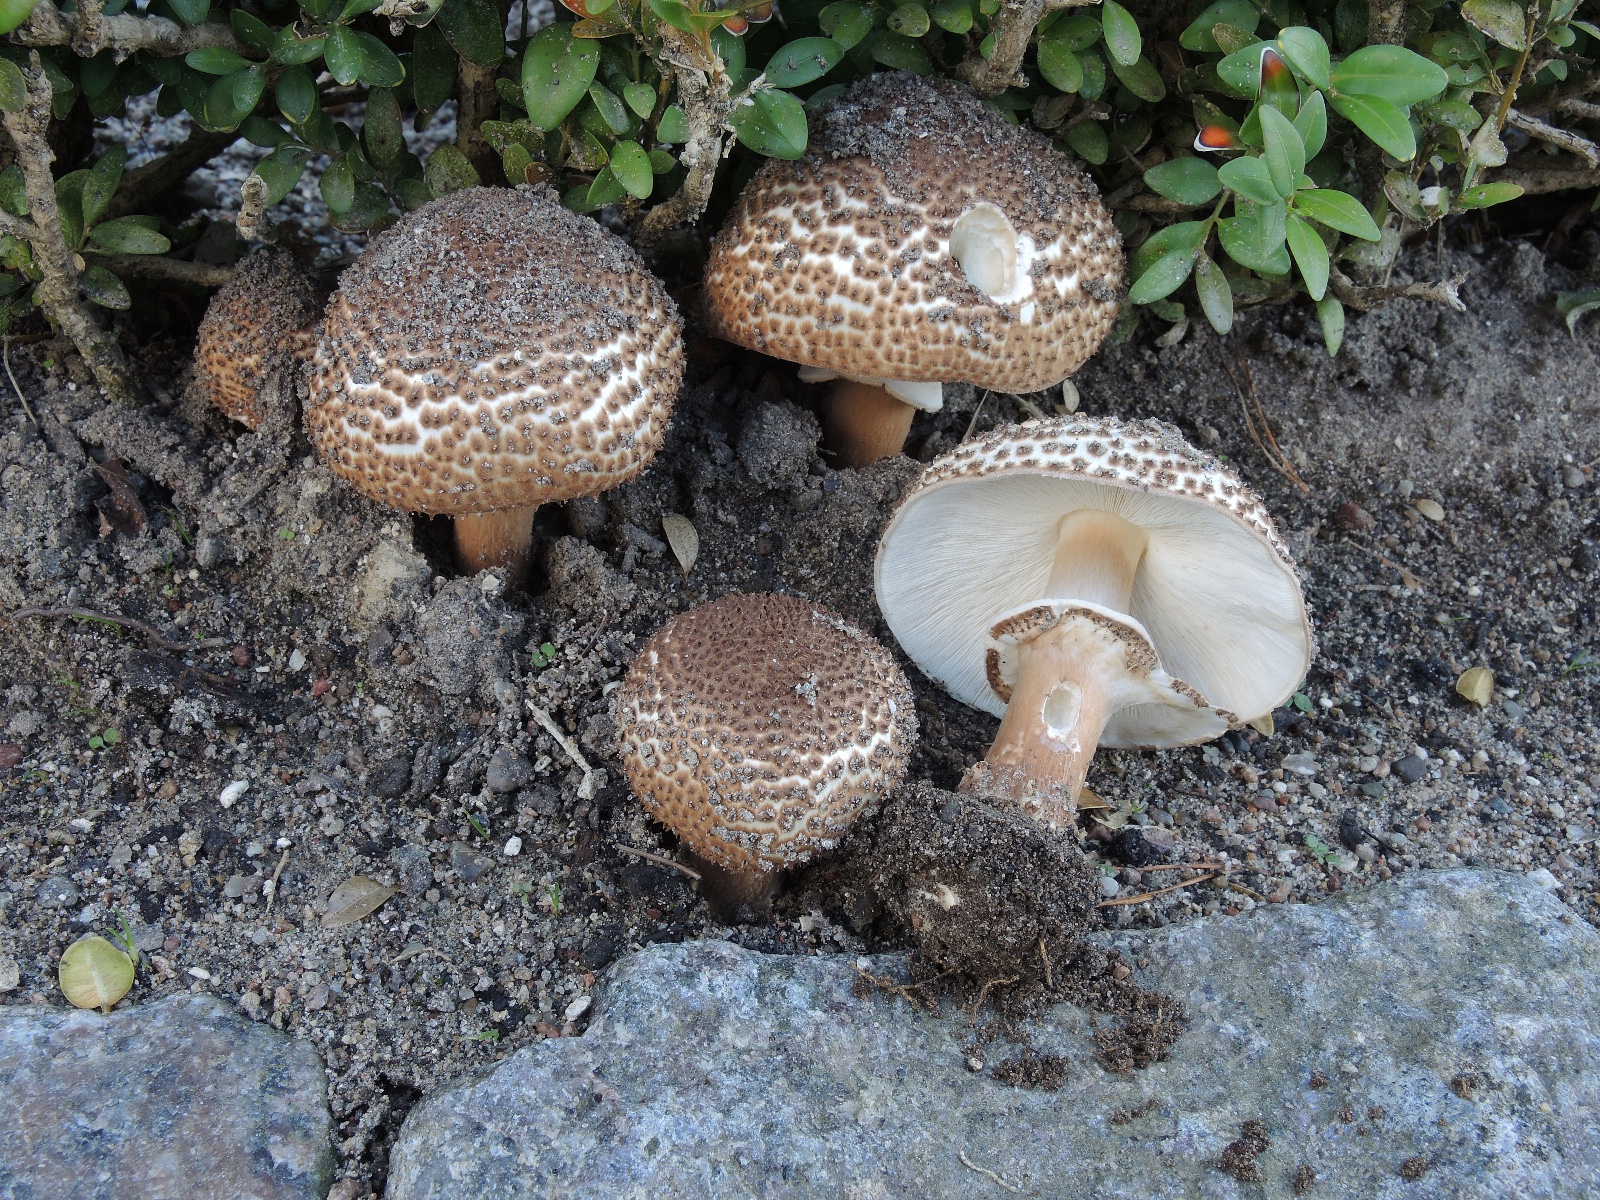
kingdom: Fungi
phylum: Basidiomycota
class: Agaricomycetes
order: Agaricales
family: Agaricaceae
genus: Echinoderma
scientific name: Echinoderma asperum
